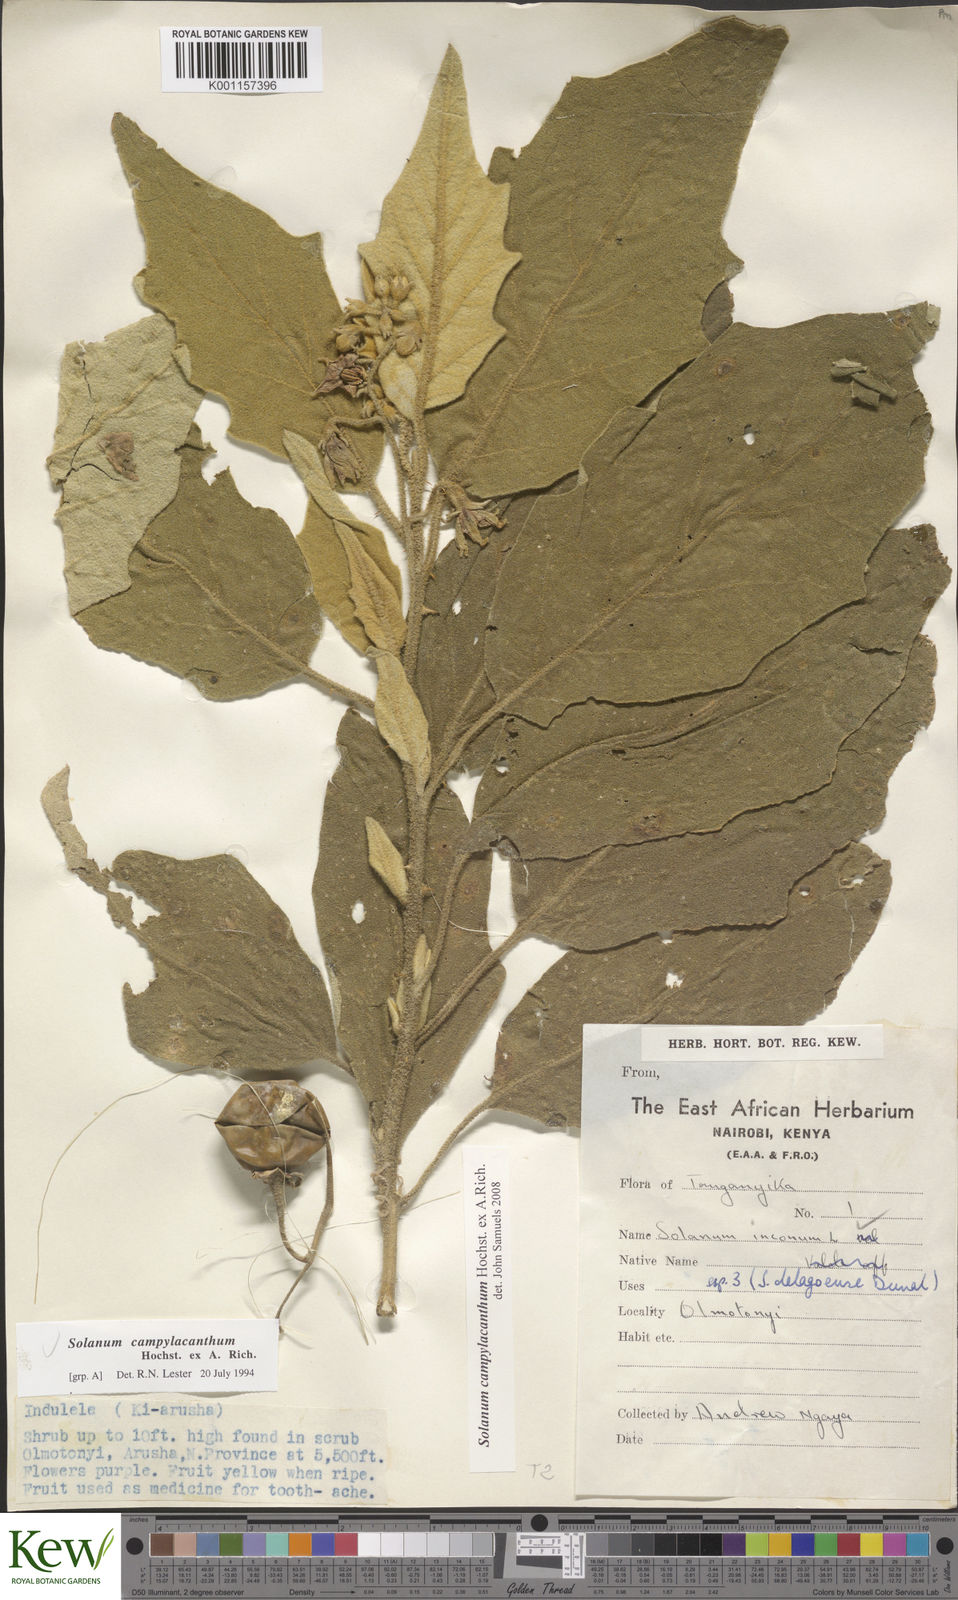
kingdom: Plantae
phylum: Tracheophyta
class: Magnoliopsida
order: Solanales
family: Solanaceae
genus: Solanum
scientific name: Solanum campylacanthum
